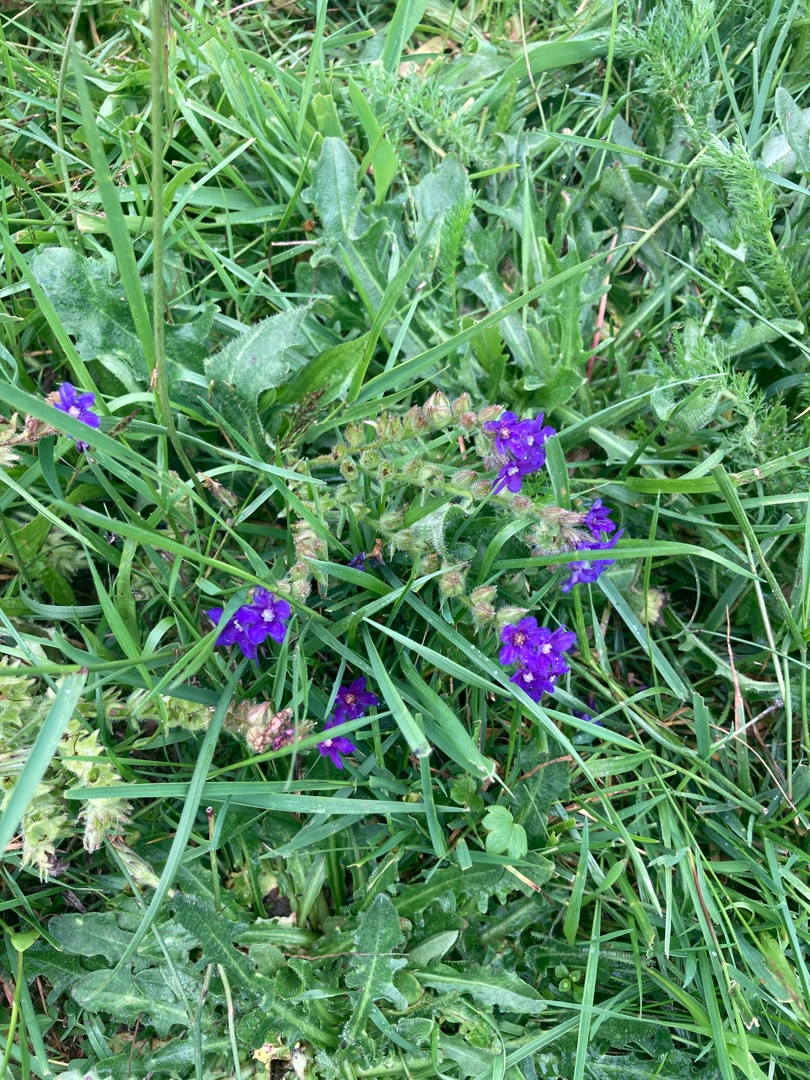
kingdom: Plantae
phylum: Tracheophyta
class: Magnoliopsida
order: Boraginales
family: Boraginaceae
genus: Anchusa
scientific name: Anchusa officinalis
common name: Læge-oksetunge
